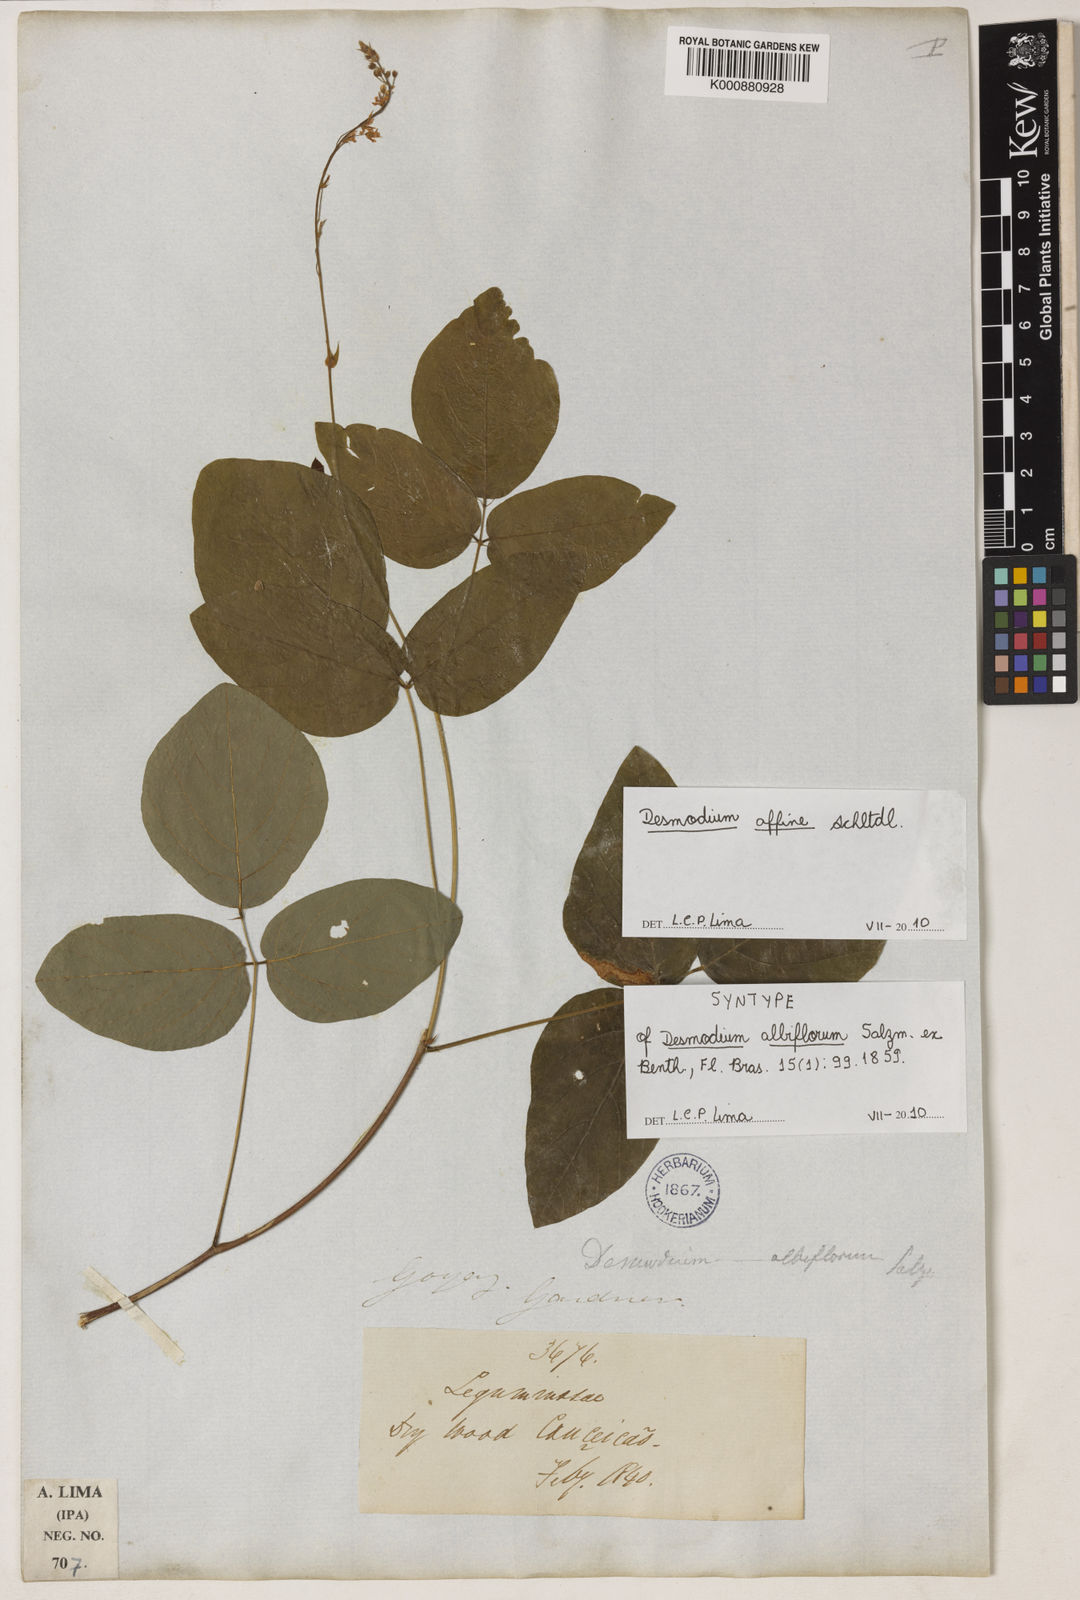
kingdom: Plantae
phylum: Tracheophyta
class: Magnoliopsida
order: Fabales
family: Fabaceae
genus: Desmodium
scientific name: Desmodium affine
